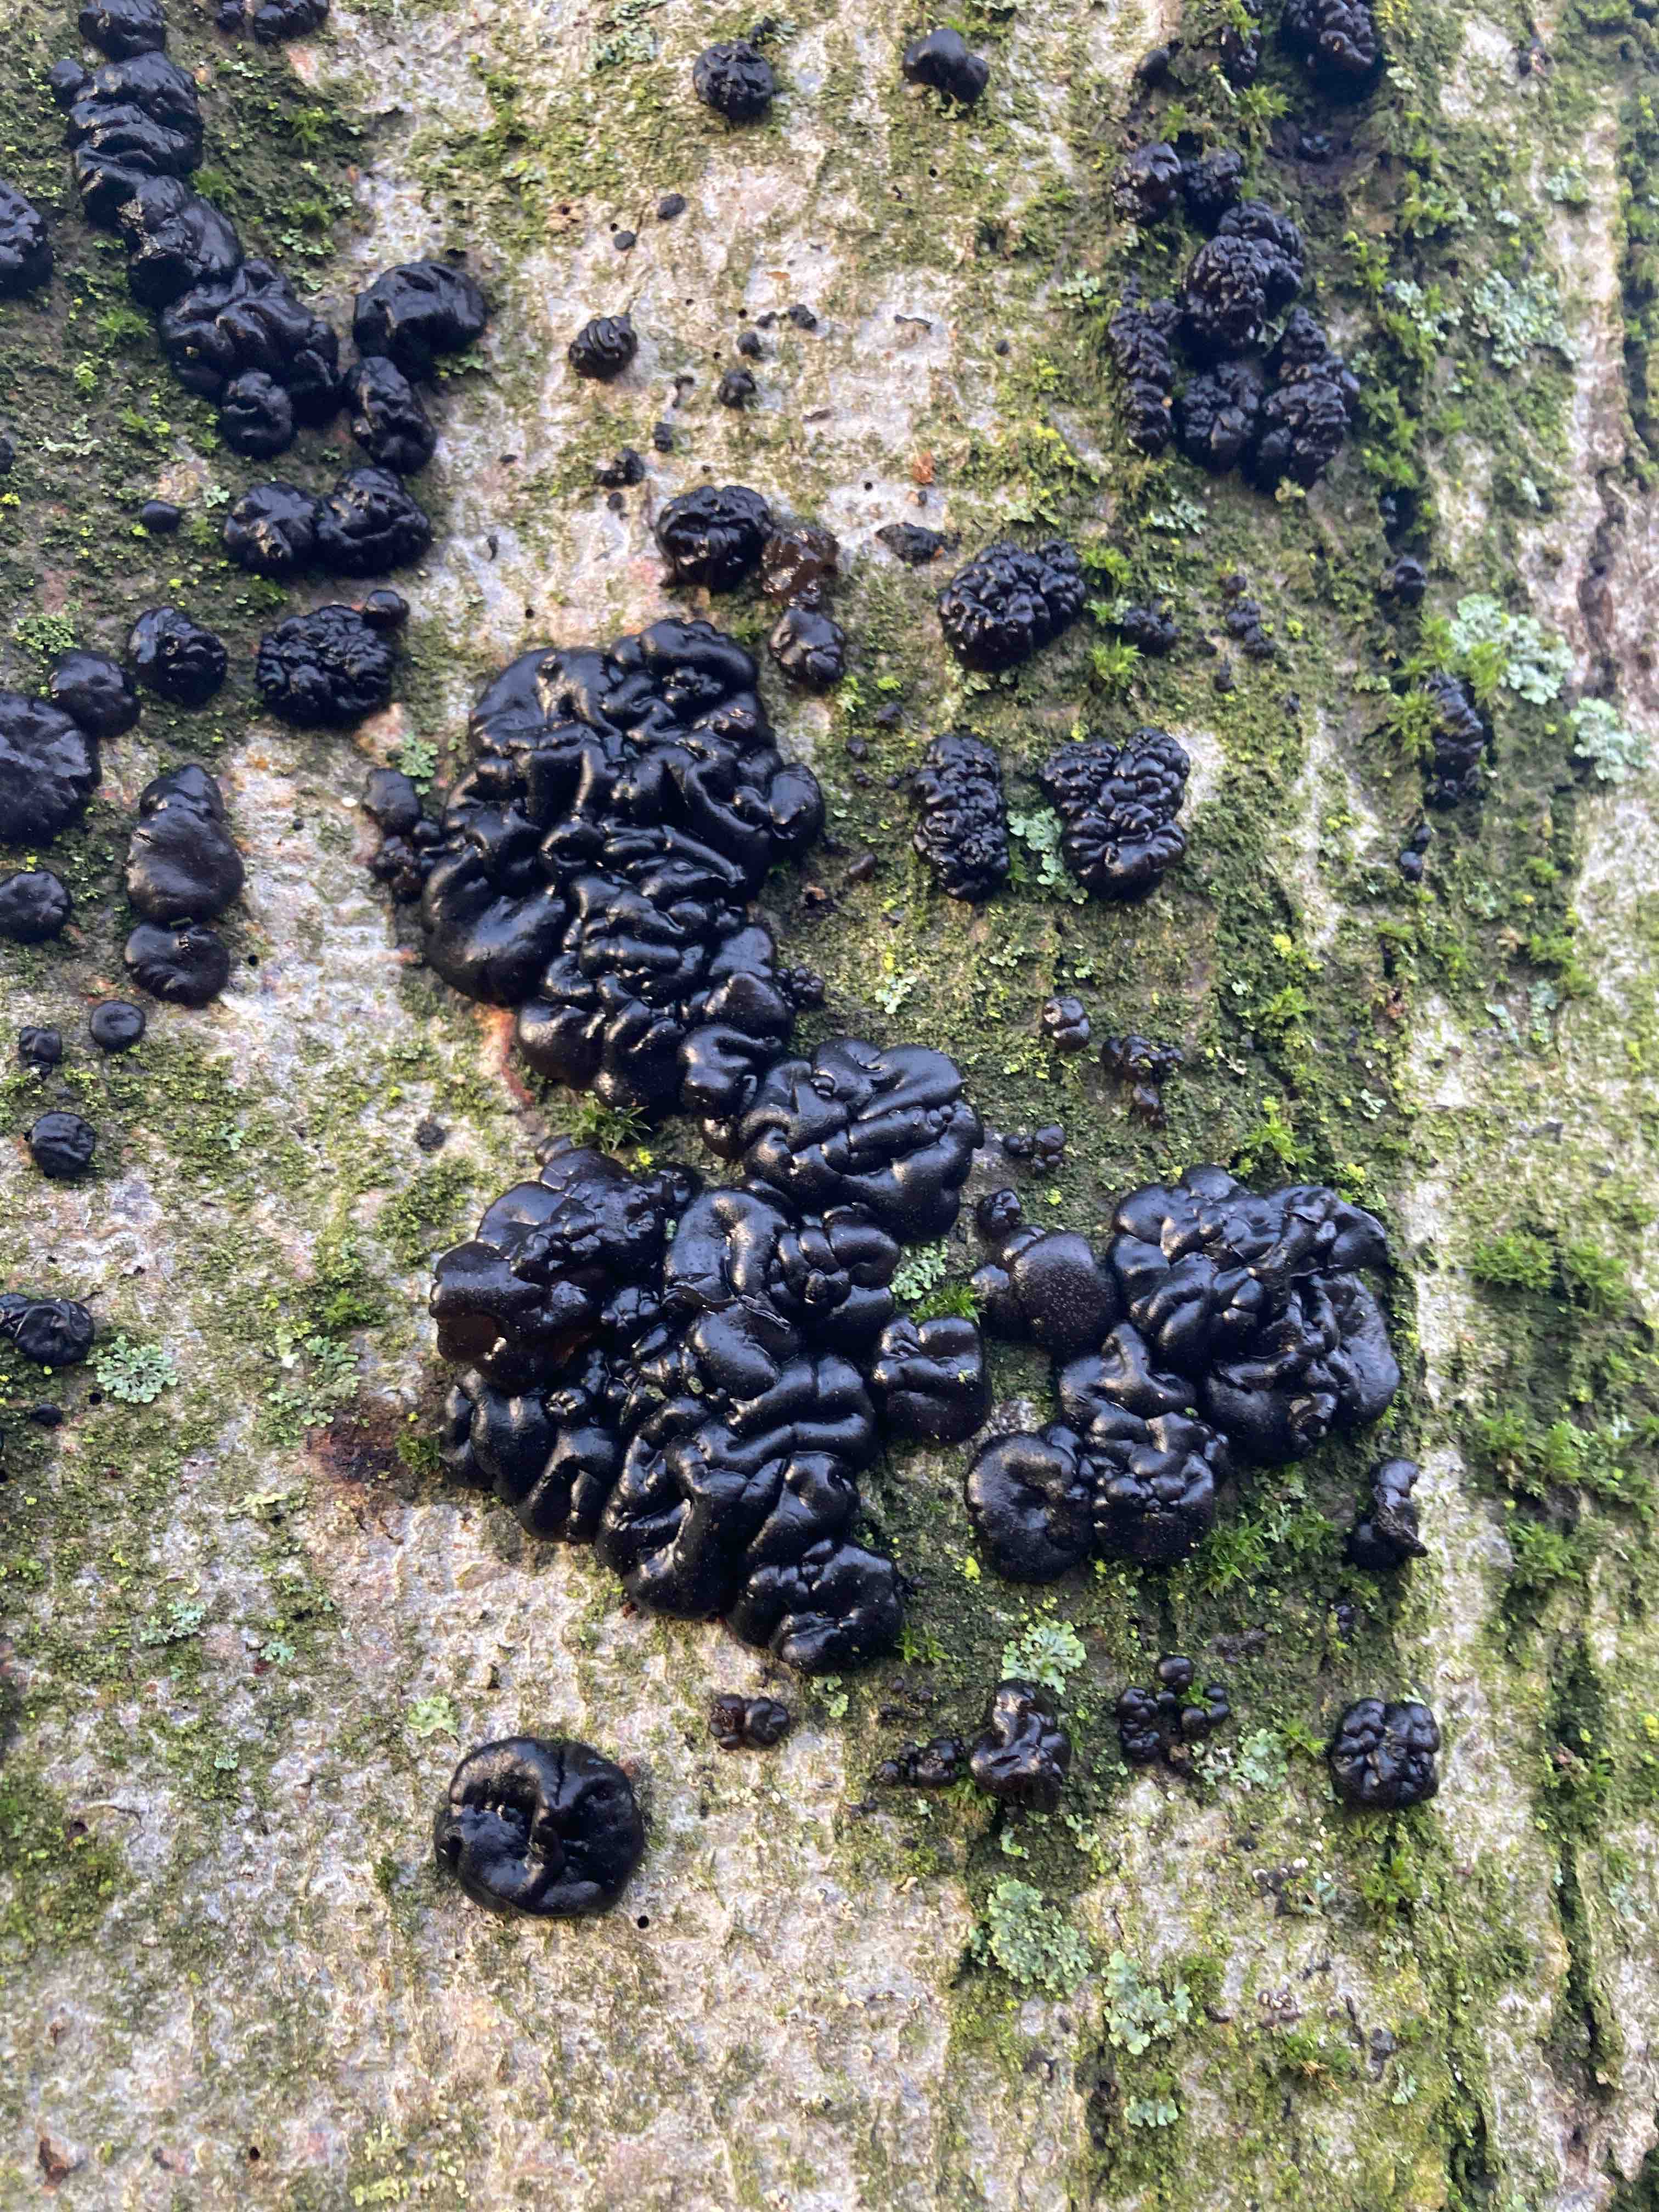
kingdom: Fungi
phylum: Basidiomycota
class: Agaricomycetes
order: Auriculariales
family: Auriculariaceae
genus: Exidia
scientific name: Exidia nigricans
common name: almindelig bævretop
